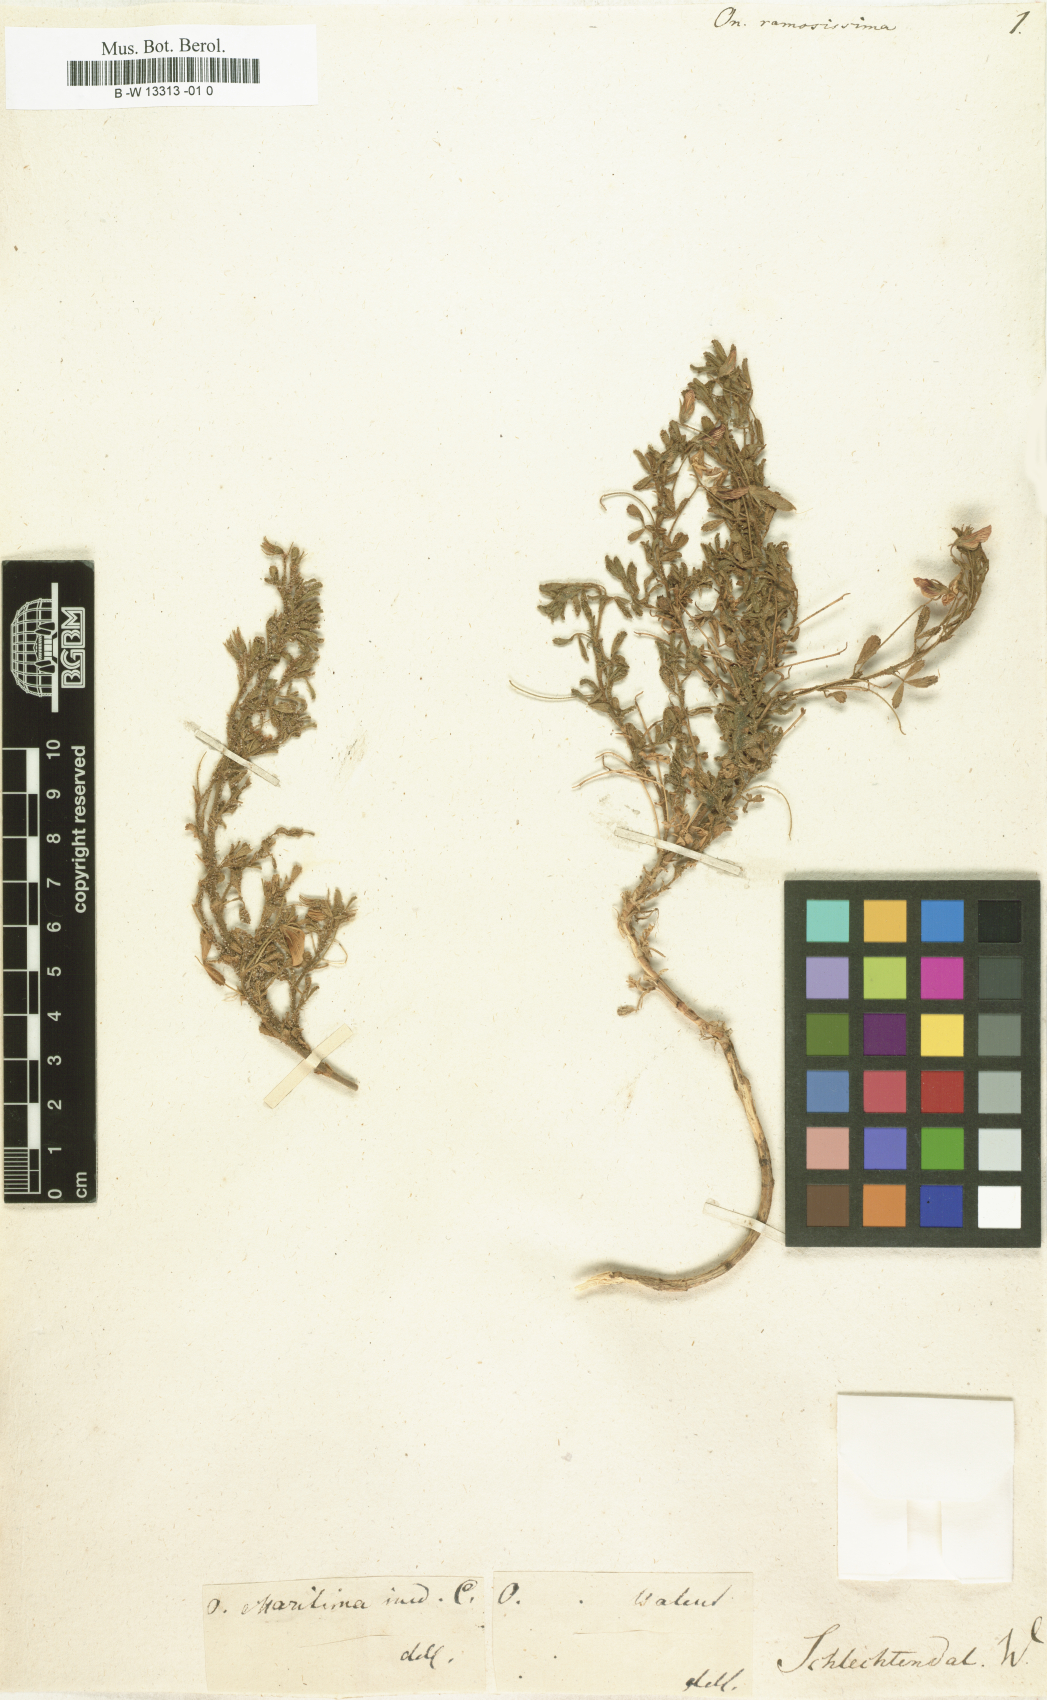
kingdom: Plantae
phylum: Tracheophyta
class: Magnoliopsida
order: Fabales
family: Fabaceae
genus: Ononis
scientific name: Ononis ramosissima
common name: Bush restharrow
